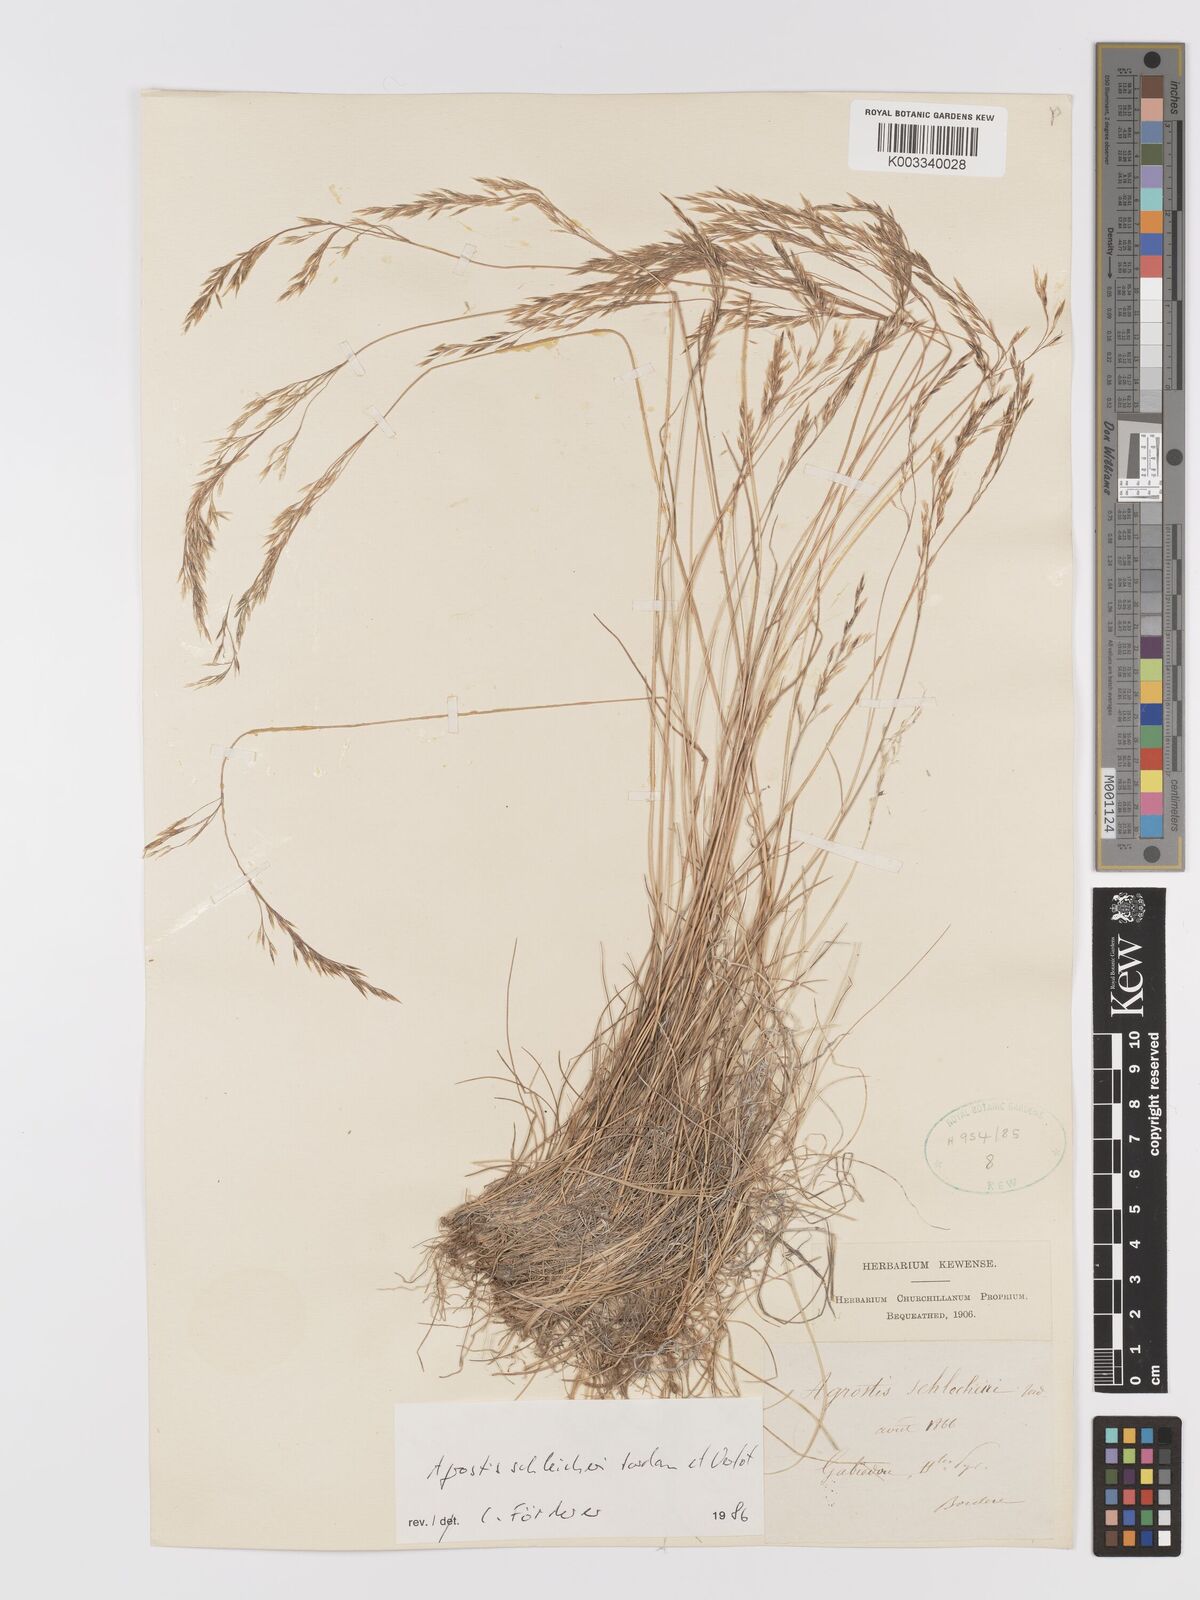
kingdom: Plantae
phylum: Tracheophyta
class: Liliopsida
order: Poales
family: Poaceae
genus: Alpagrostis
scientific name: Alpagrostis schleicheri
